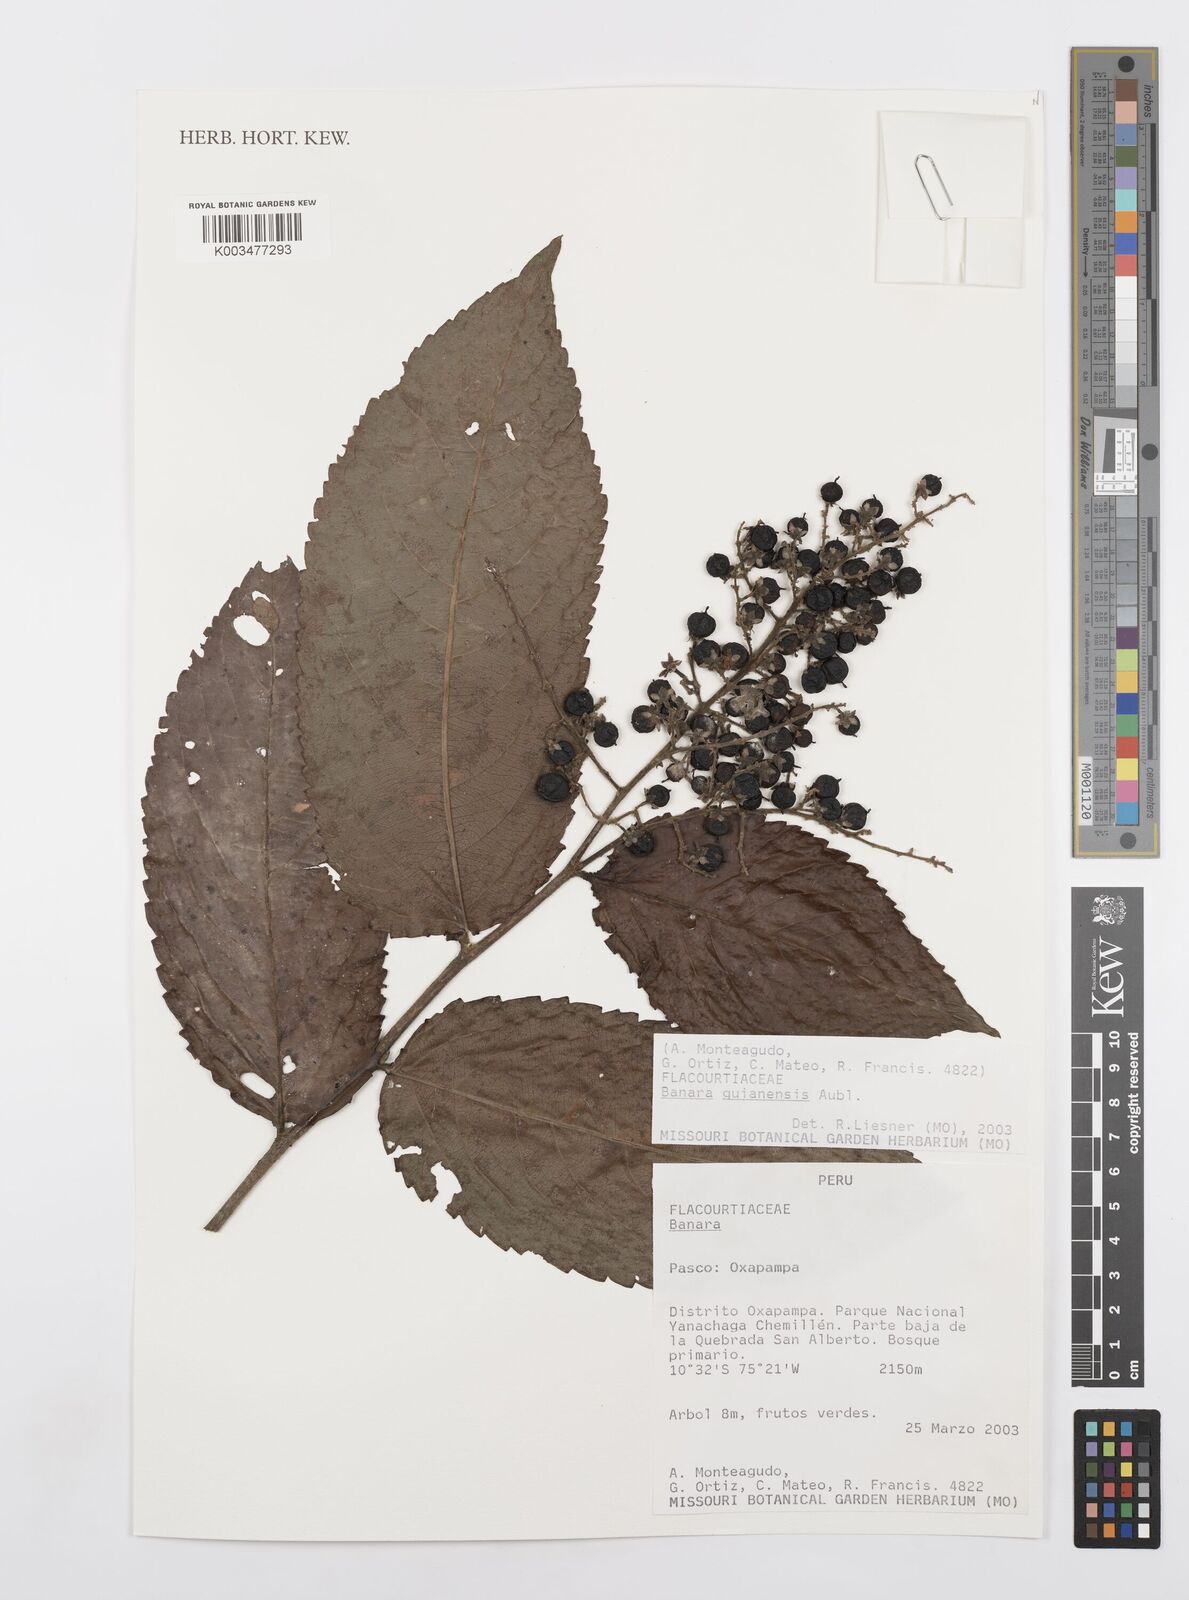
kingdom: Plantae
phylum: Tracheophyta
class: Magnoliopsida
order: Malpighiales
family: Salicaceae
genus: Banara
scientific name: Banara guianensis
